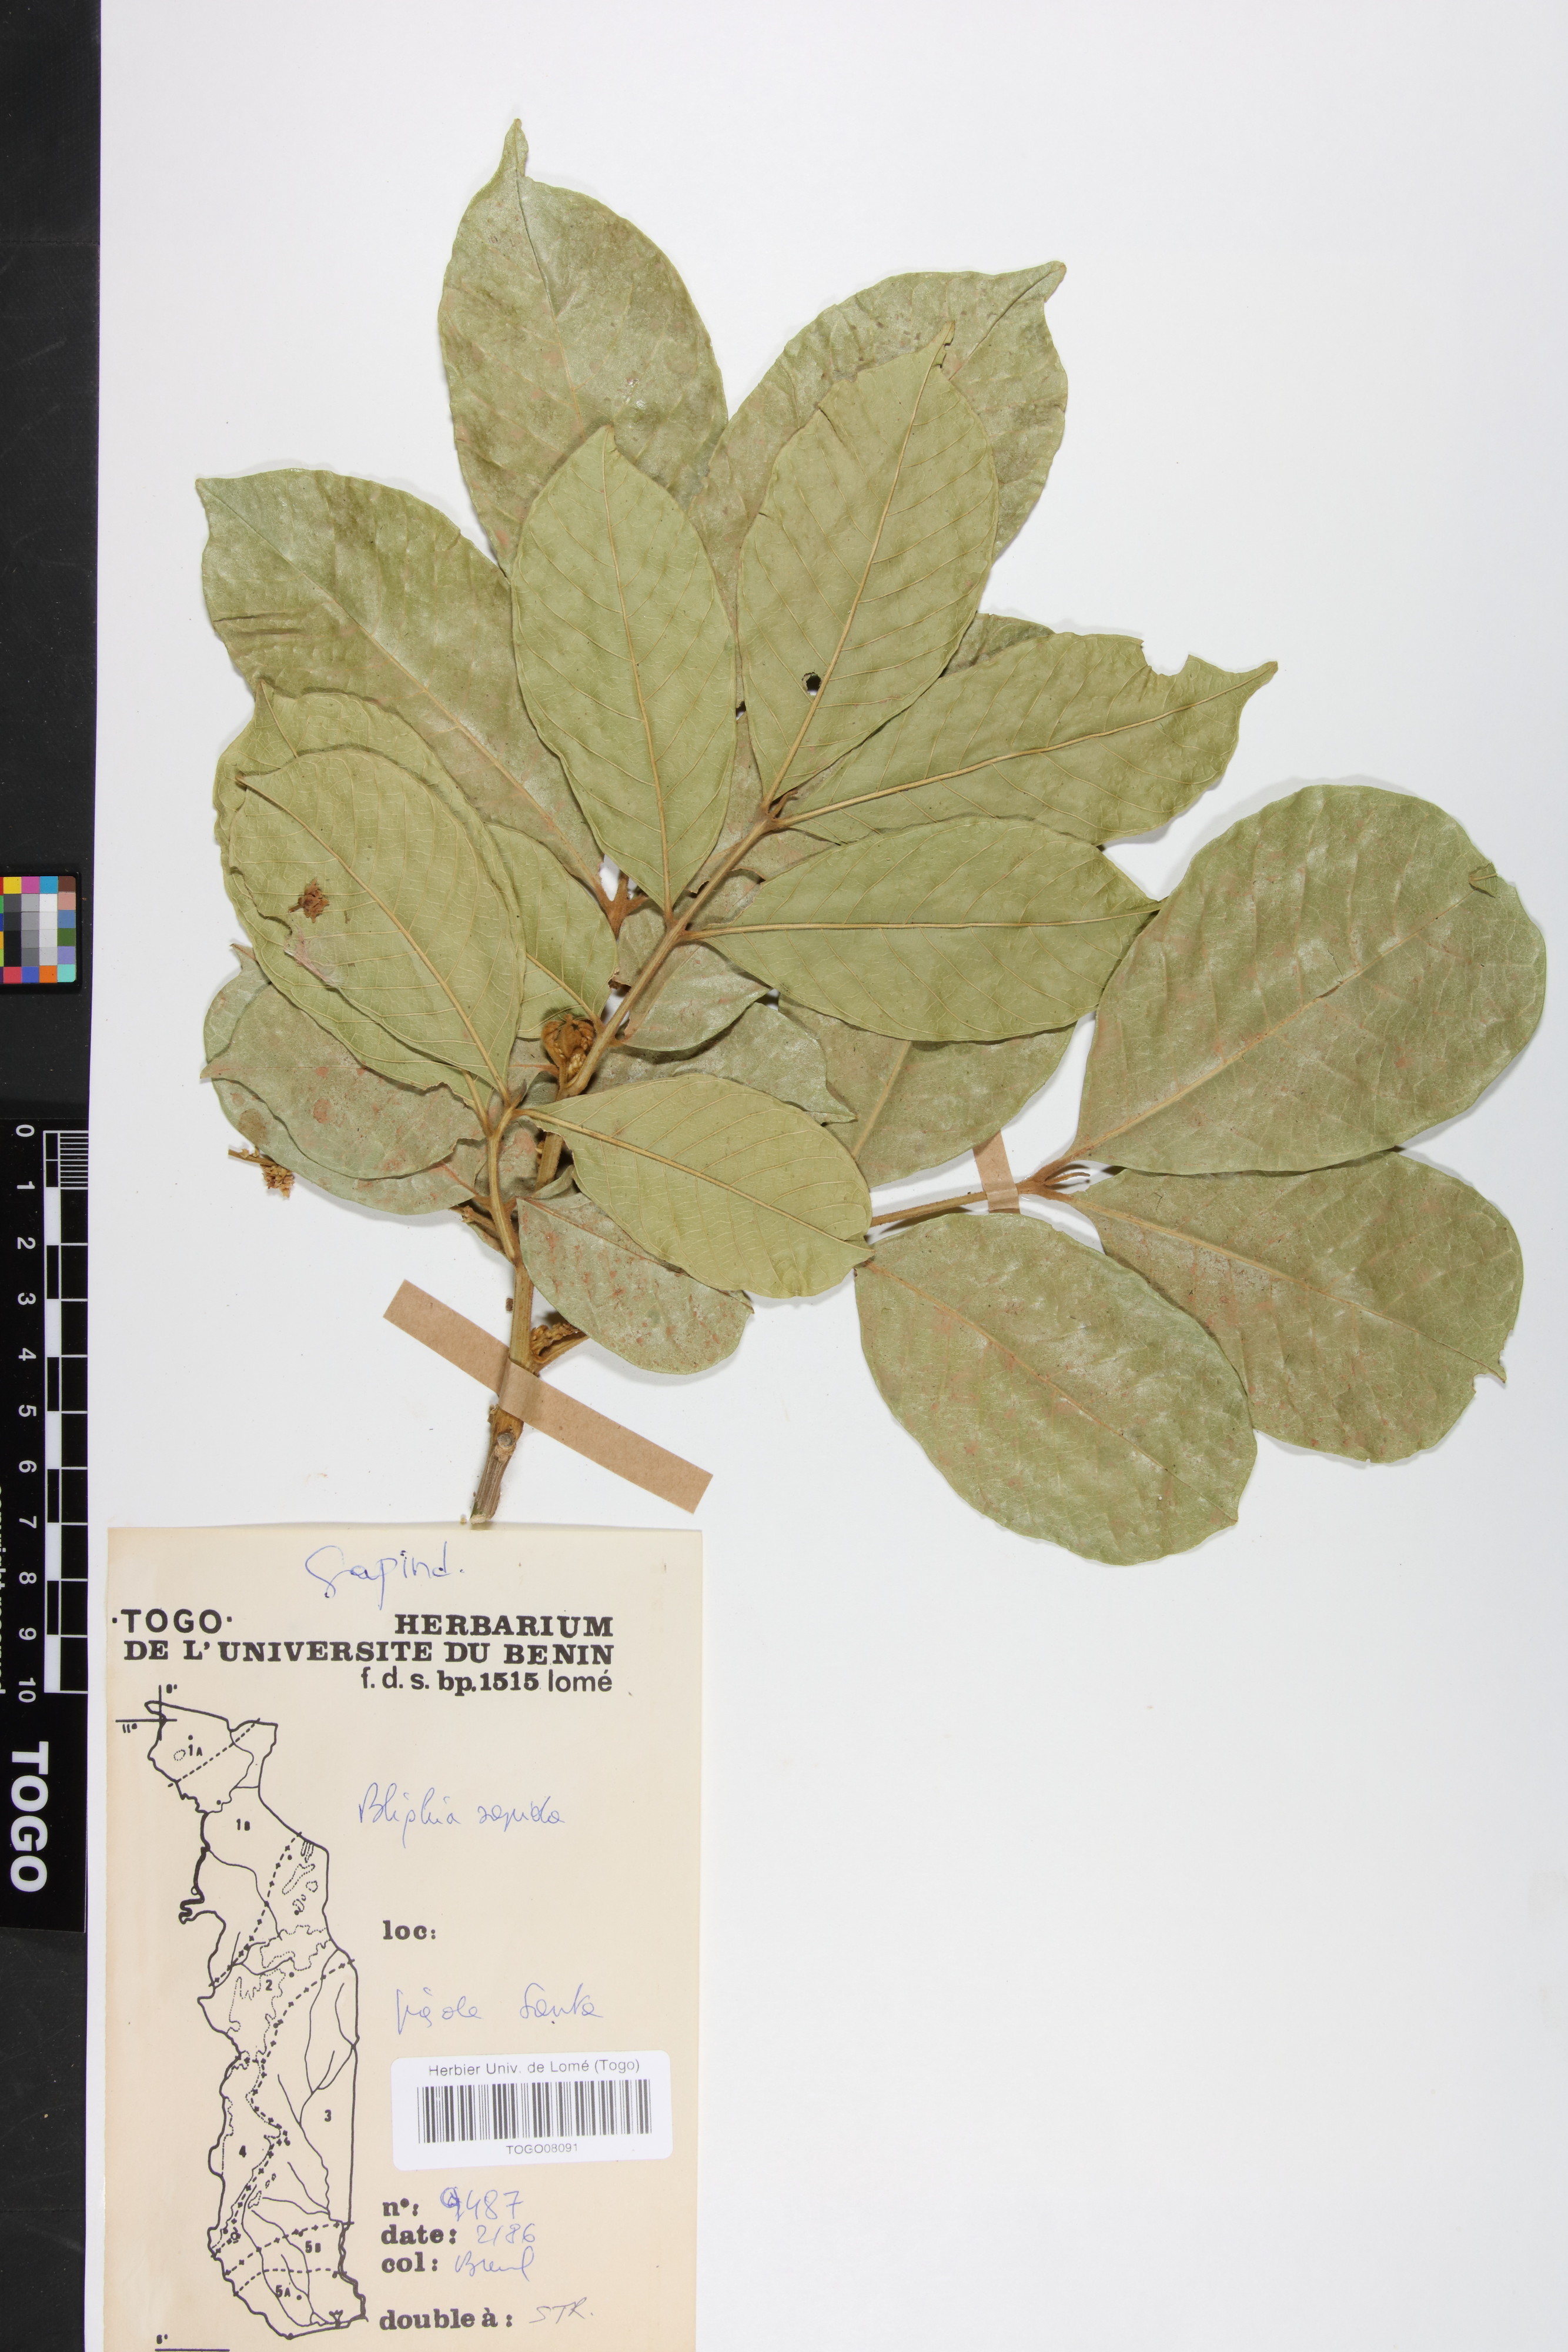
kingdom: Plantae
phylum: Tracheophyta
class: Magnoliopsida
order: Sapindales
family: Sapindaceae
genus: Blighia
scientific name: Blighia sapida
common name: Akee
